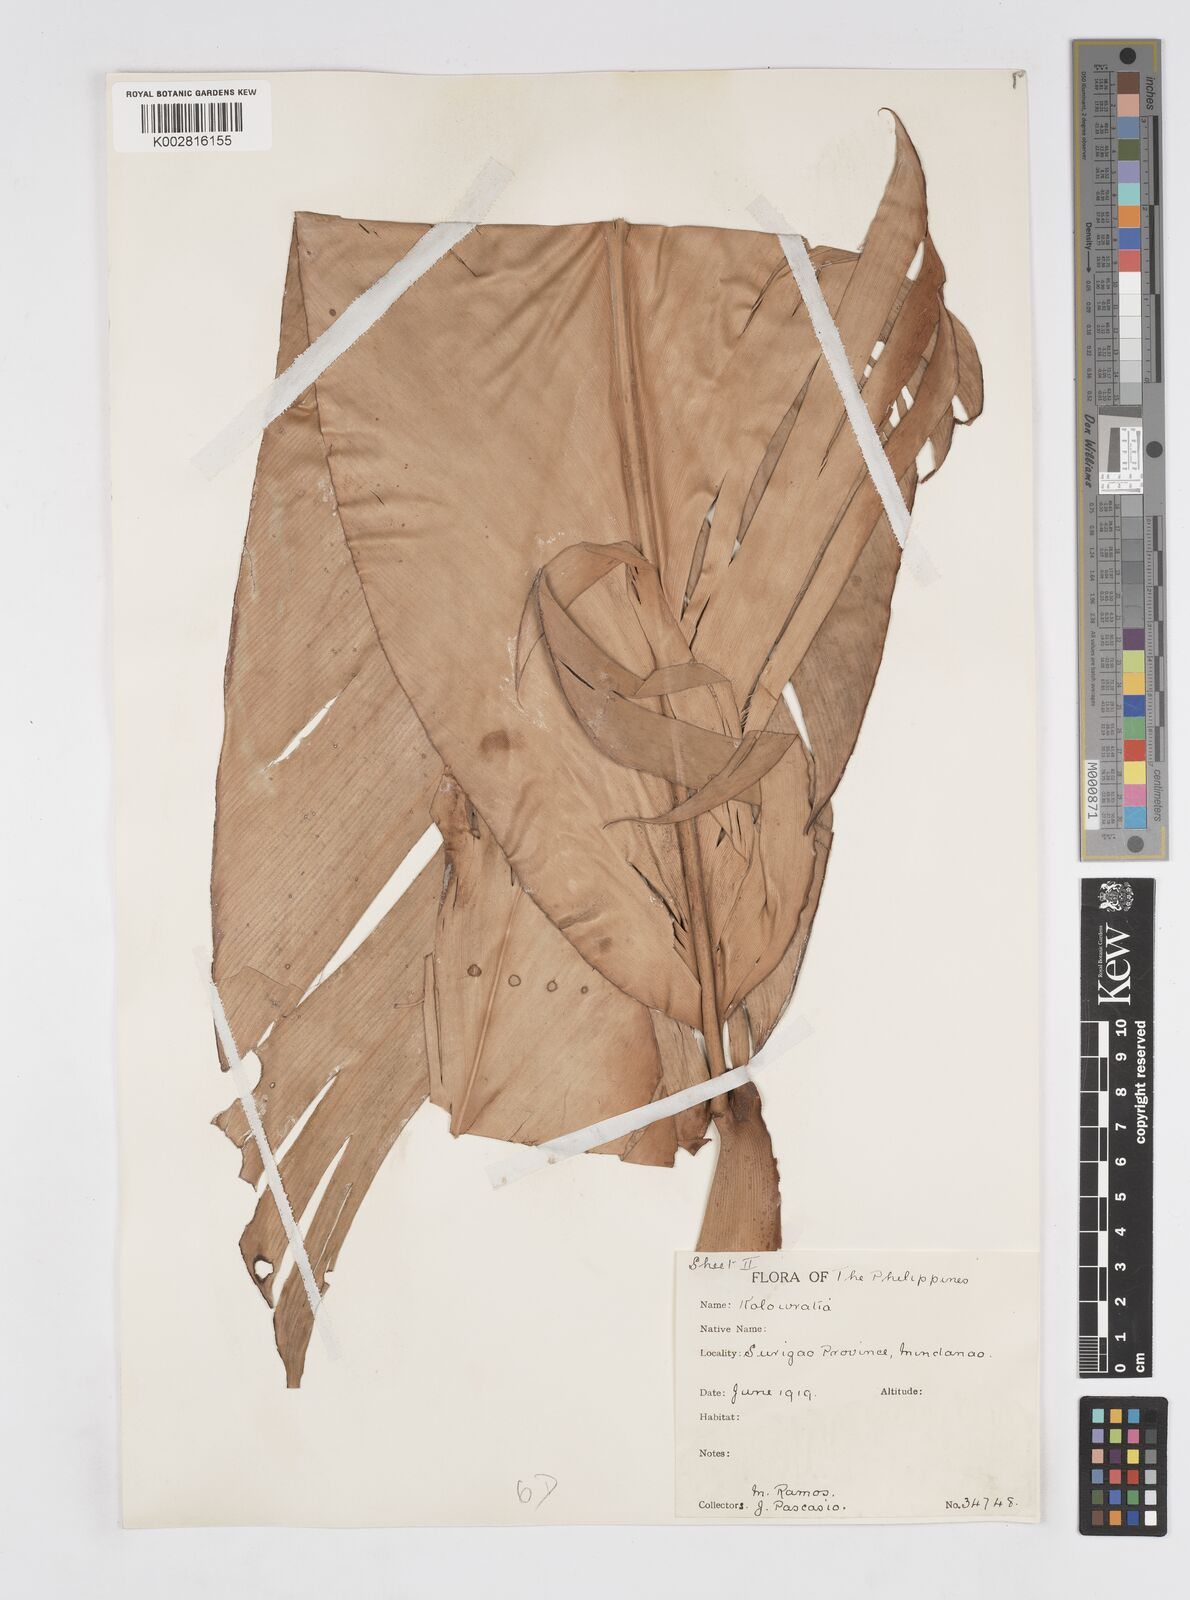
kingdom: Plantae
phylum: Tracheophyta
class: Liliopsida
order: Zingiberales
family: Zingiberaceae
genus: Alpinia
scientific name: Alpinia elegans
